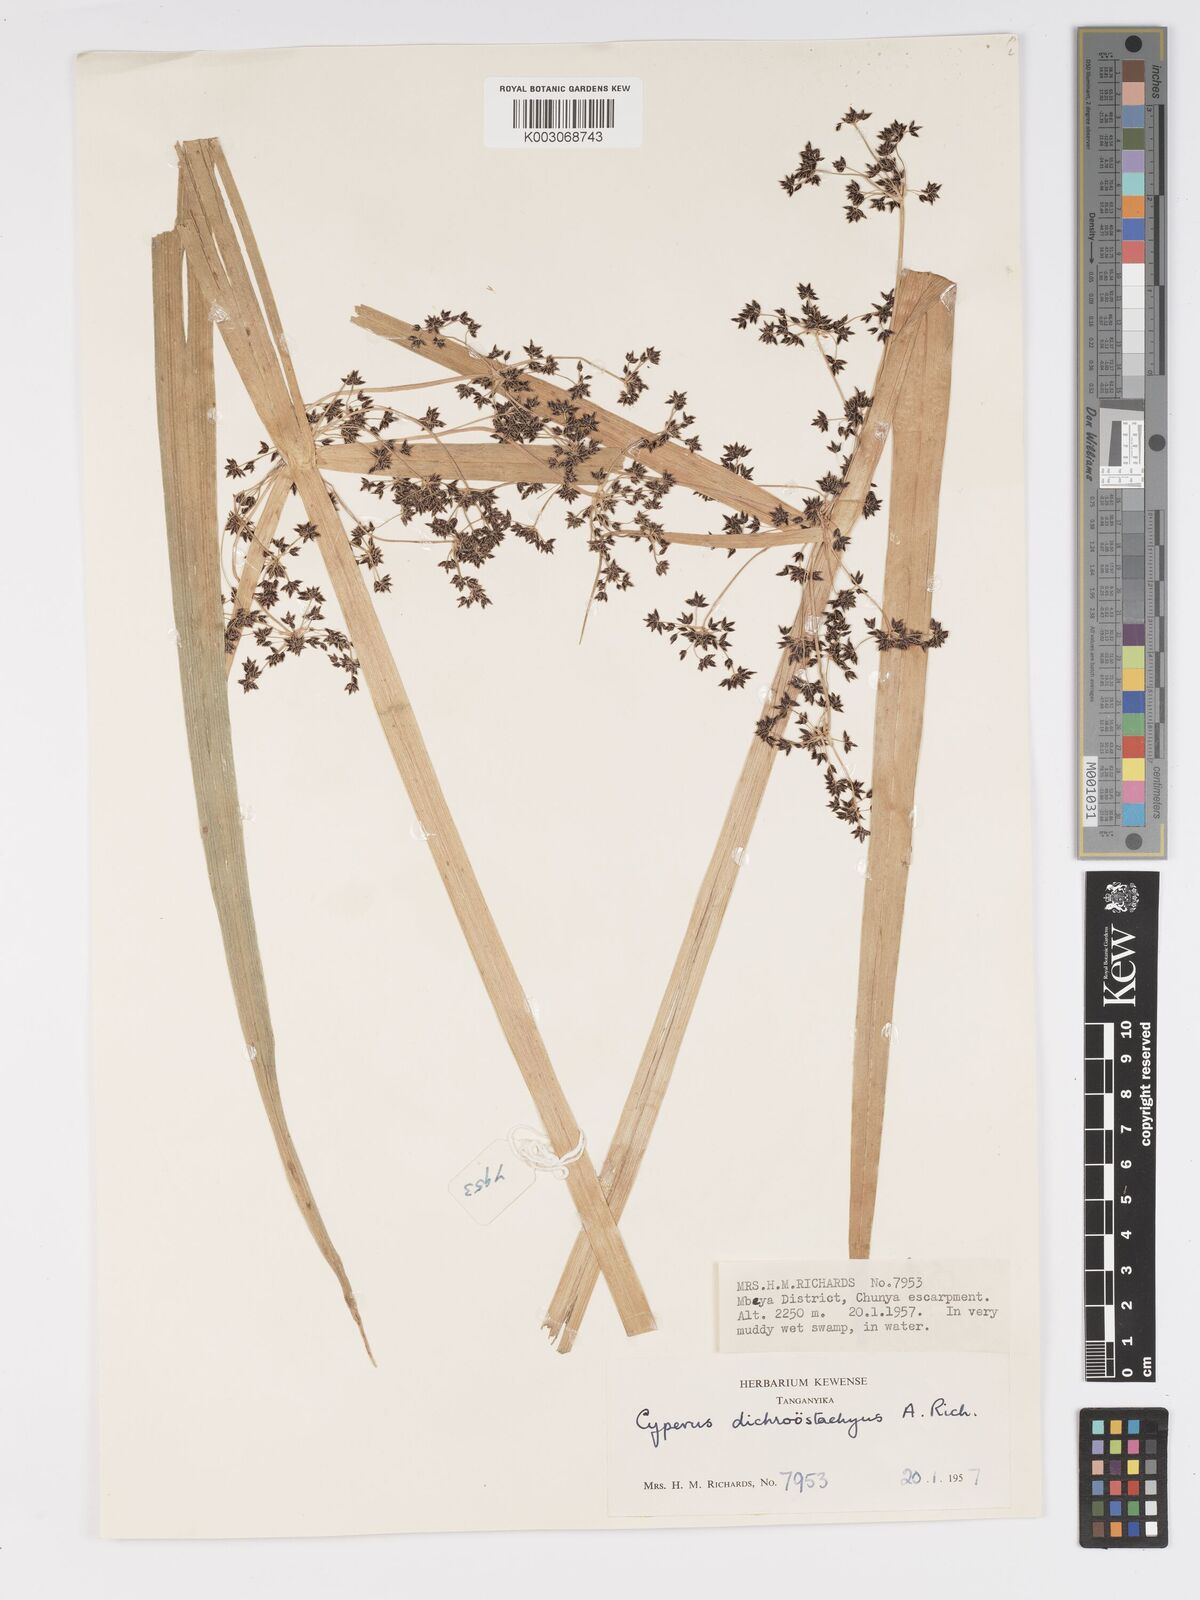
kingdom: Plantae
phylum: Tracheophyta
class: Liliopsida
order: Poales
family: Cyperaceae
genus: Cyperus
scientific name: Cyperus dichrostachyus
